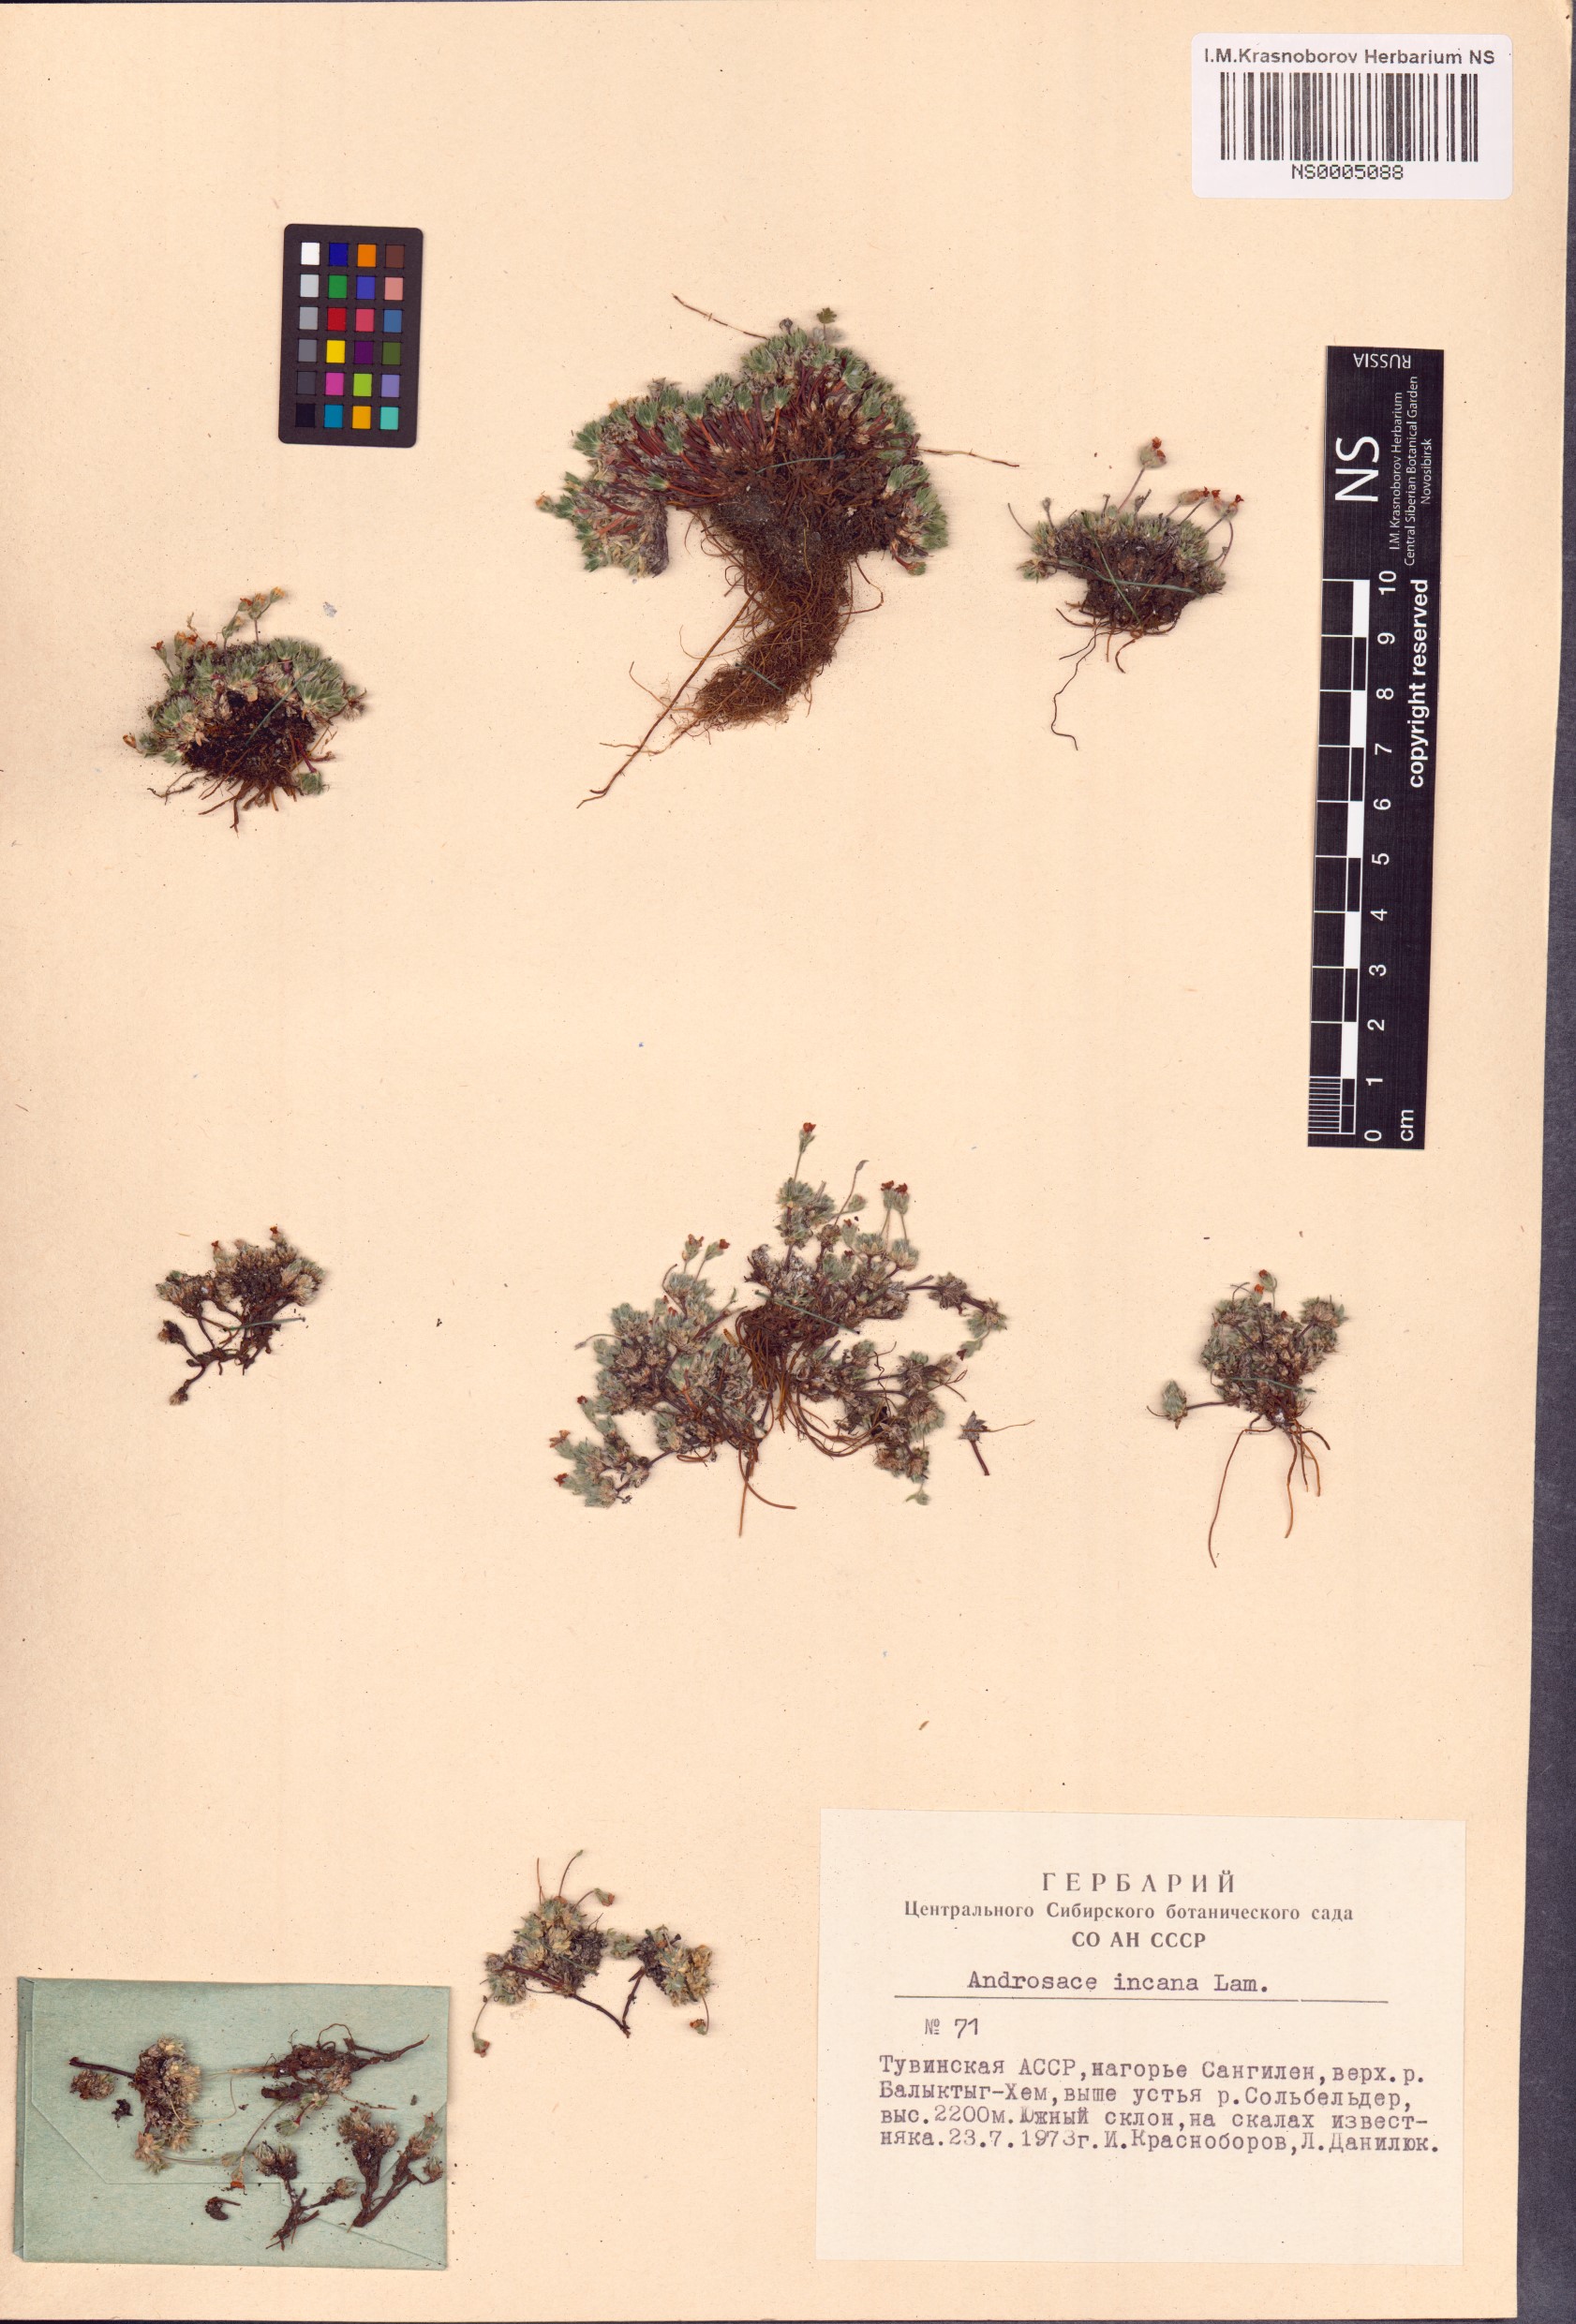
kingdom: Plantae
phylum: Tracheophyta
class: Magnoliopsida
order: Ericales
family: Primulaceae
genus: Androsace
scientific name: Androsace incana
